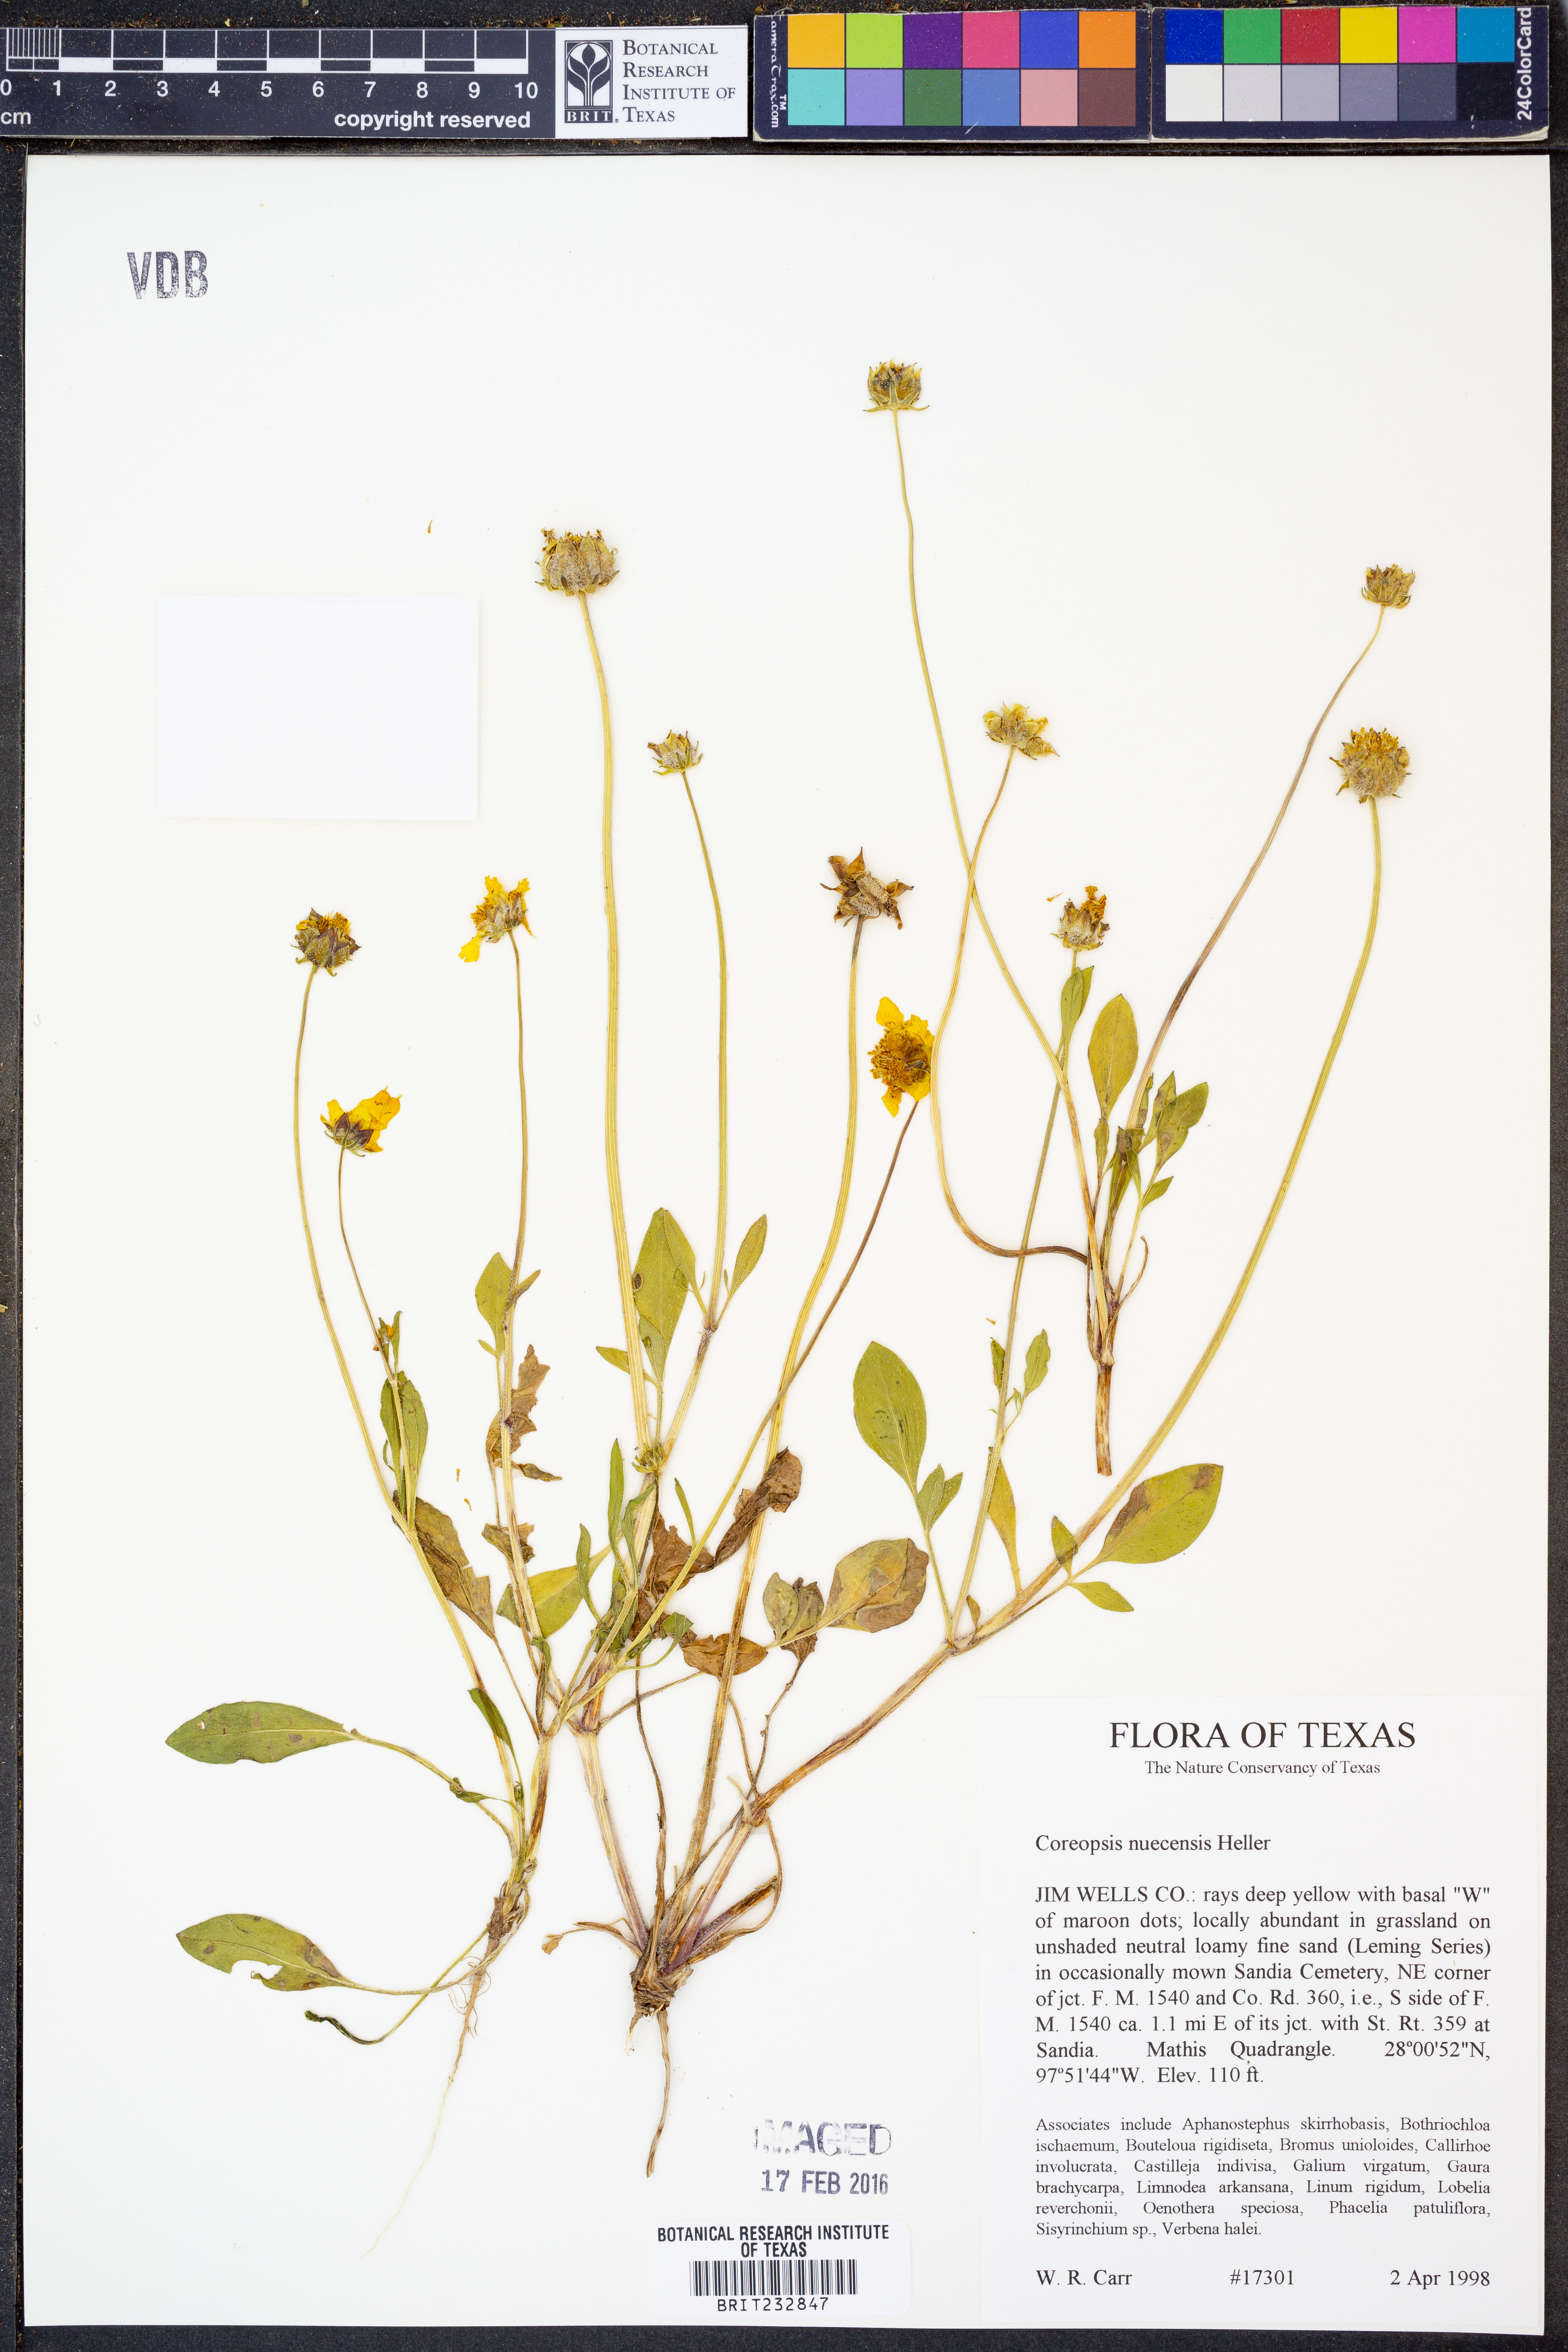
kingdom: Plantae
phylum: Tracheophyta
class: Magnoliopsida
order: Asterales
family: Asteraceae
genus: Coreopsis
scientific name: Coreopsis nuecensis
